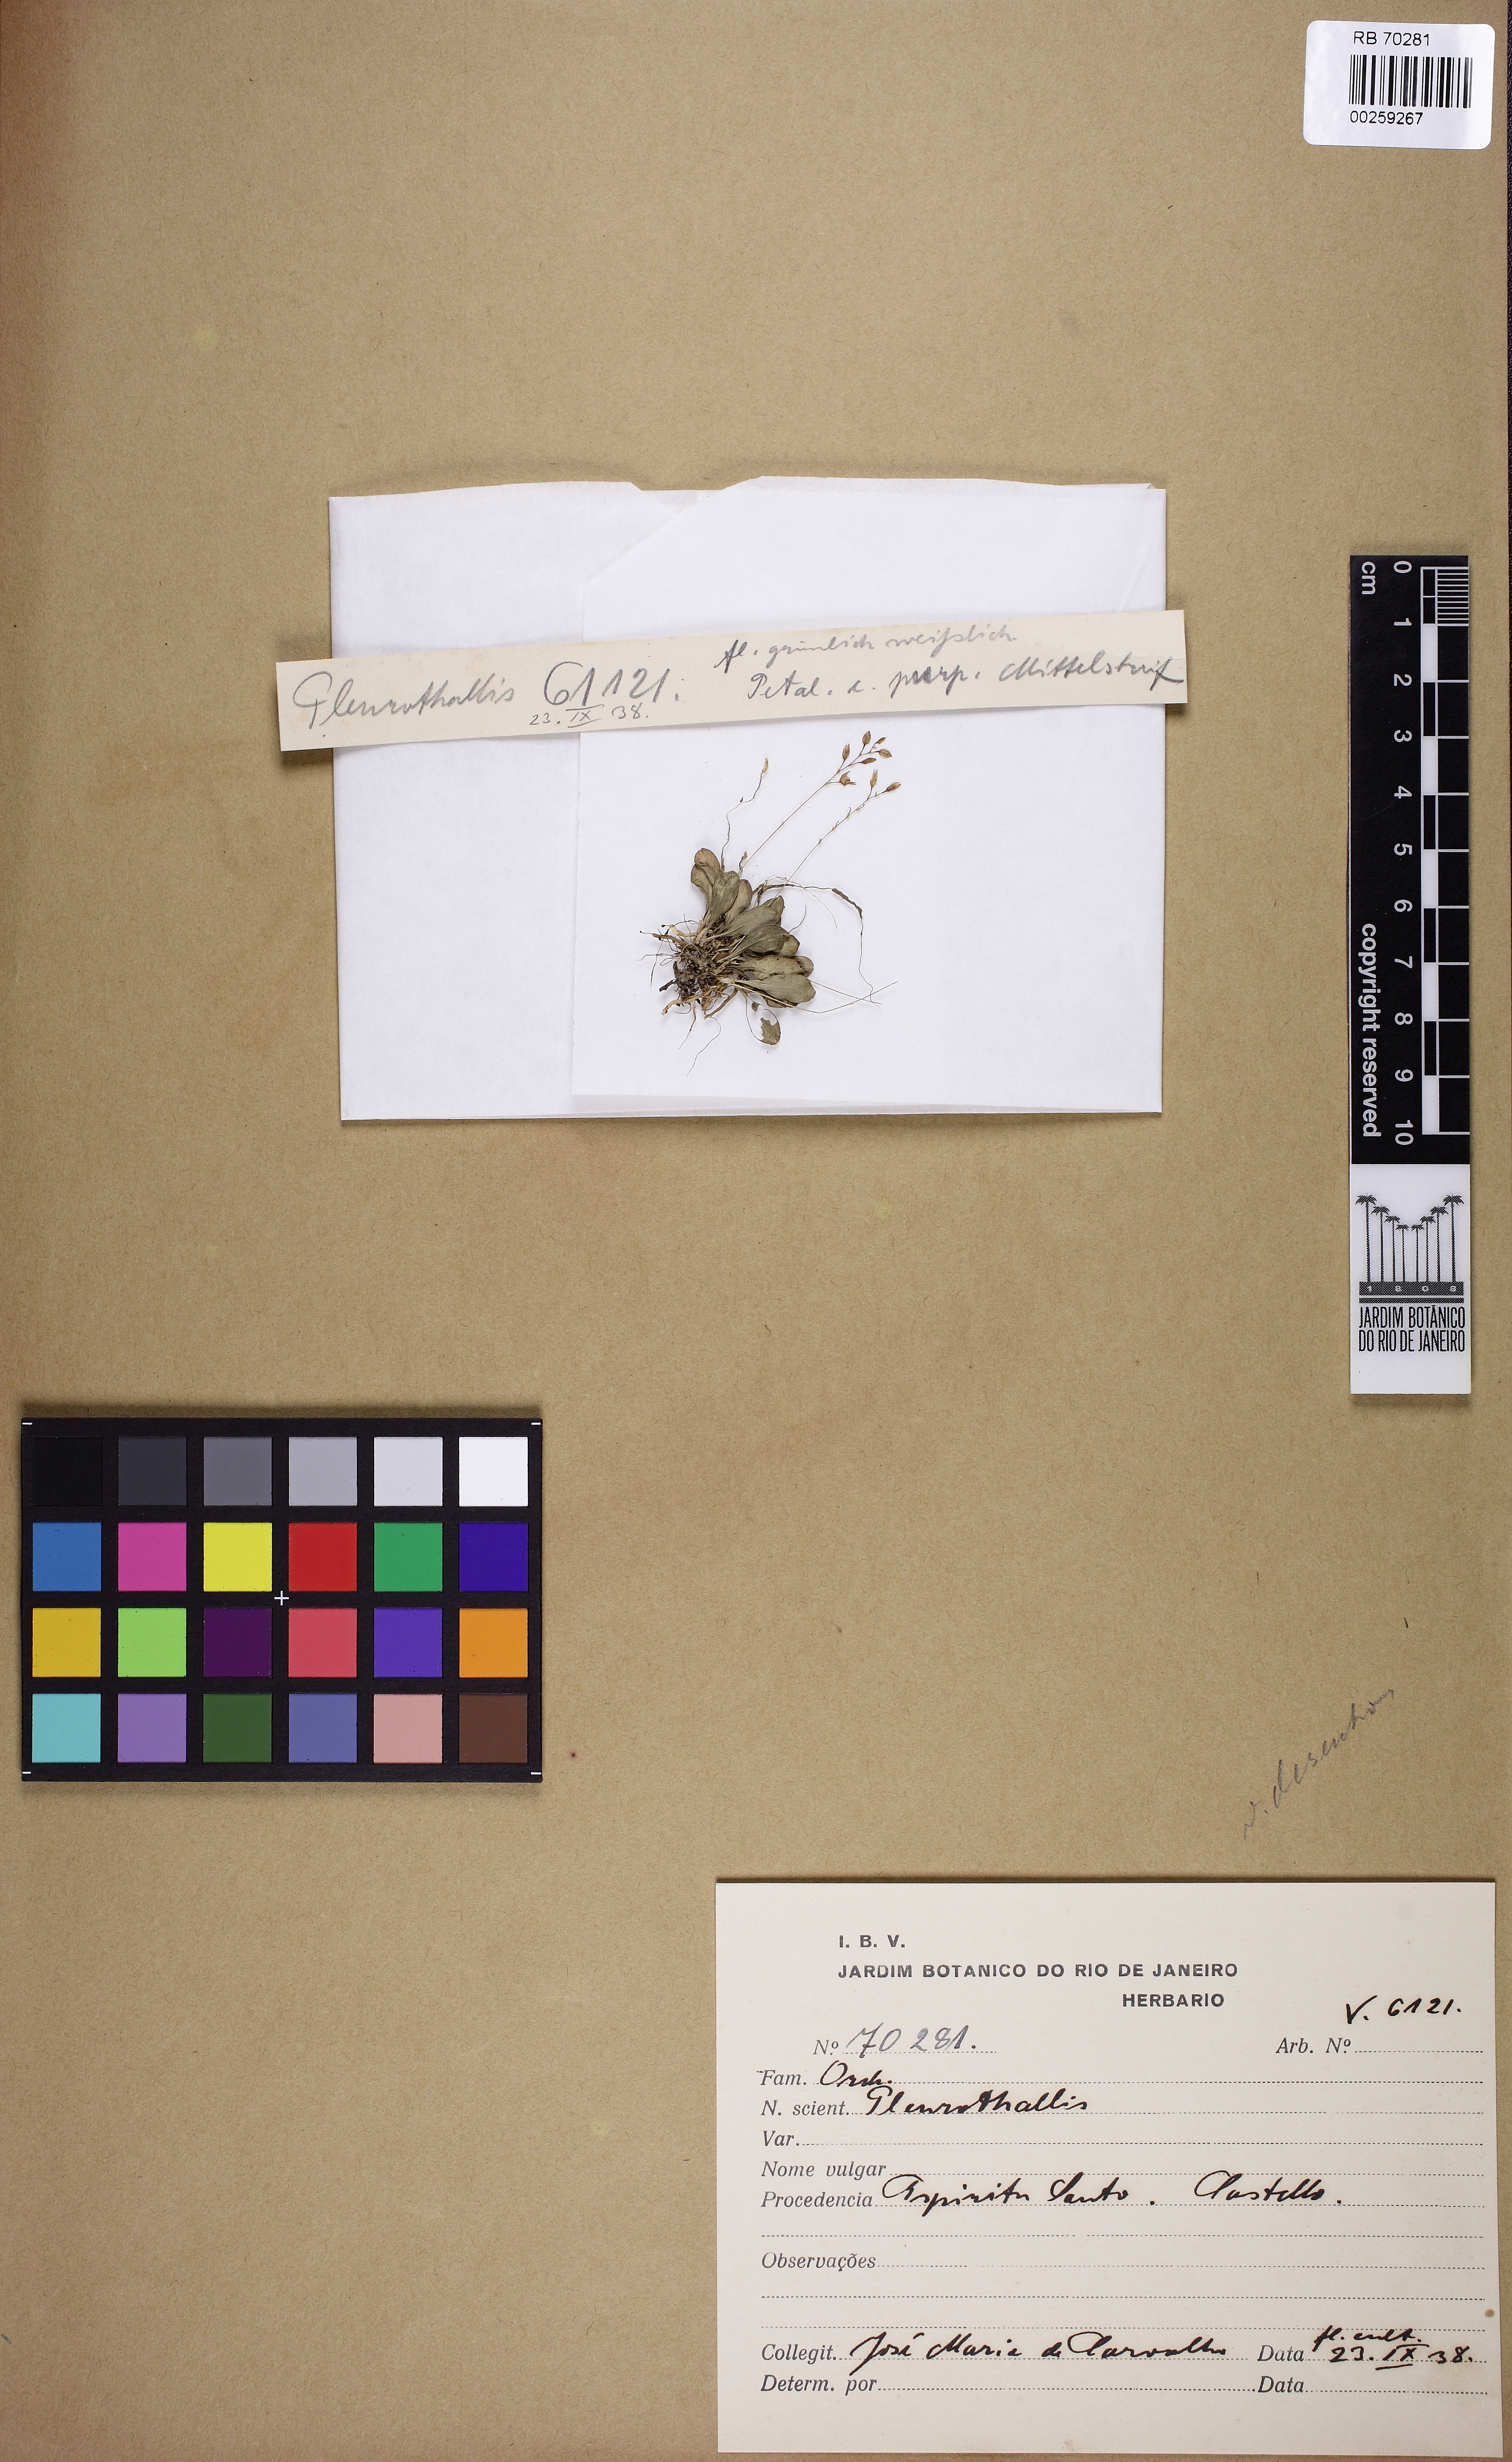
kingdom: Plantae
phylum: Tracheophyta
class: Liliopsida
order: Asparagales
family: Orchidaceae
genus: Pleurothallis
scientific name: Pleurothallis
